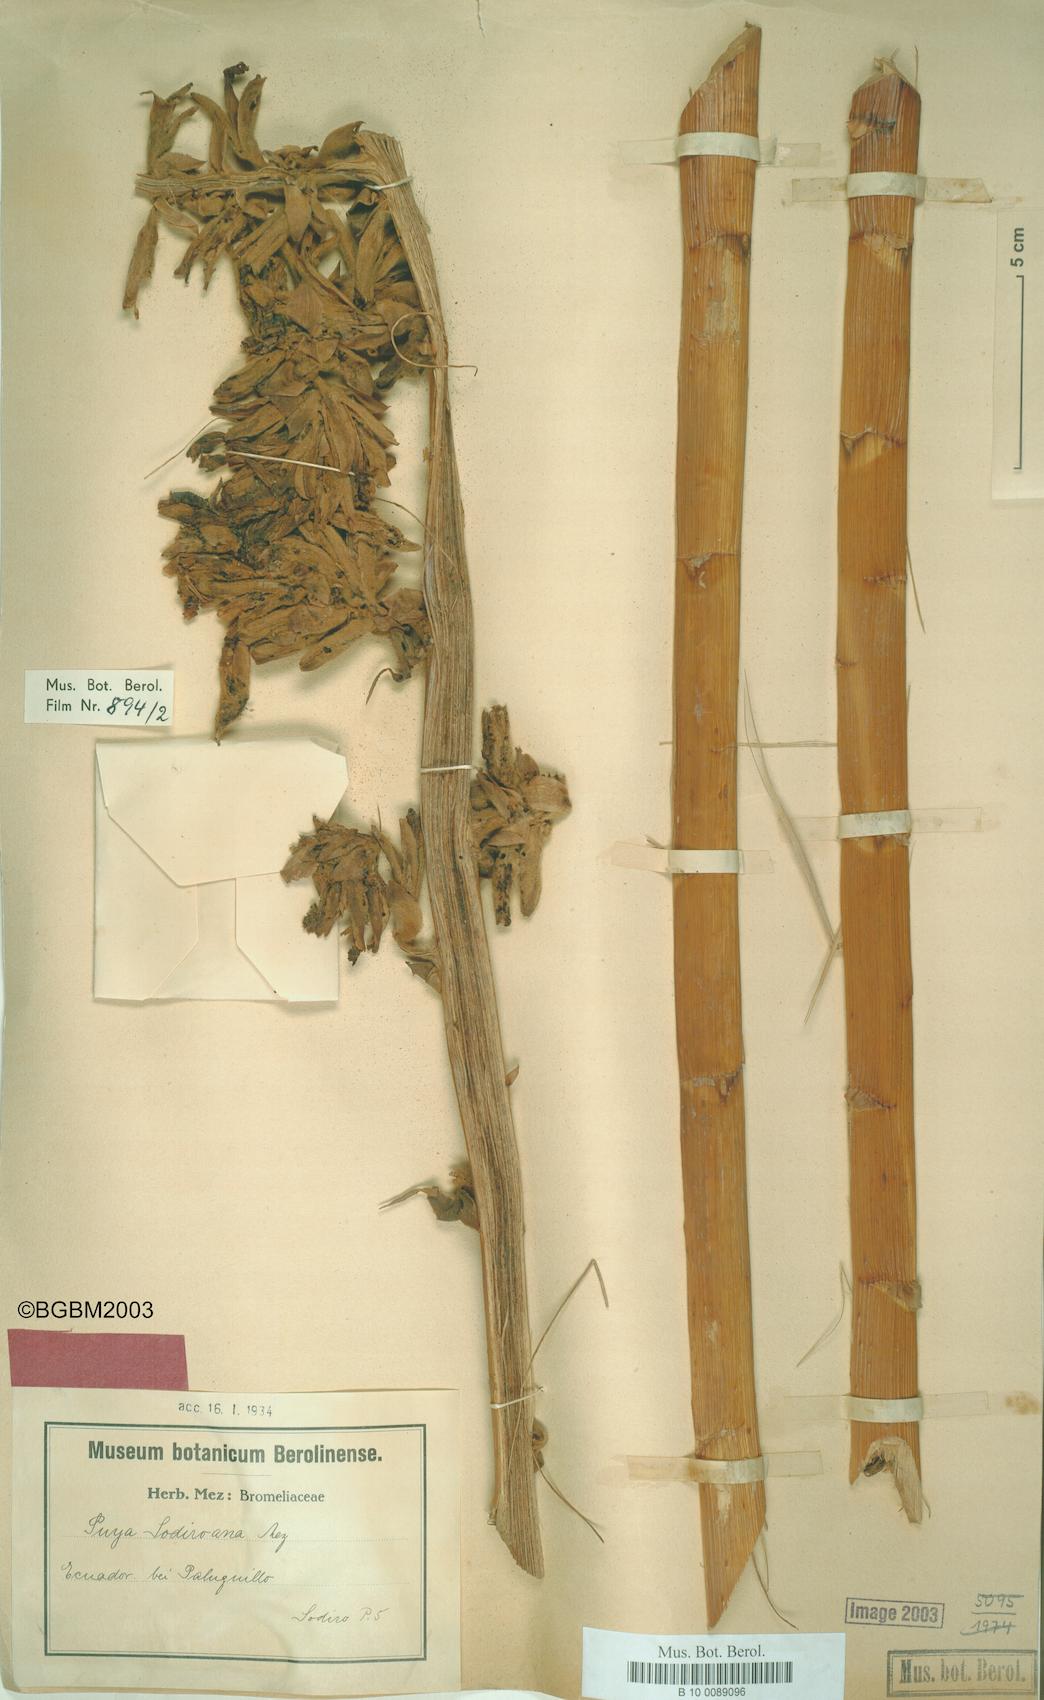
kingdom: Plantae
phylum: Tracheophyta
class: Liliopsida
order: Poales
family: Bromeliaceae
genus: Puya
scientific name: Puya sodiroana
